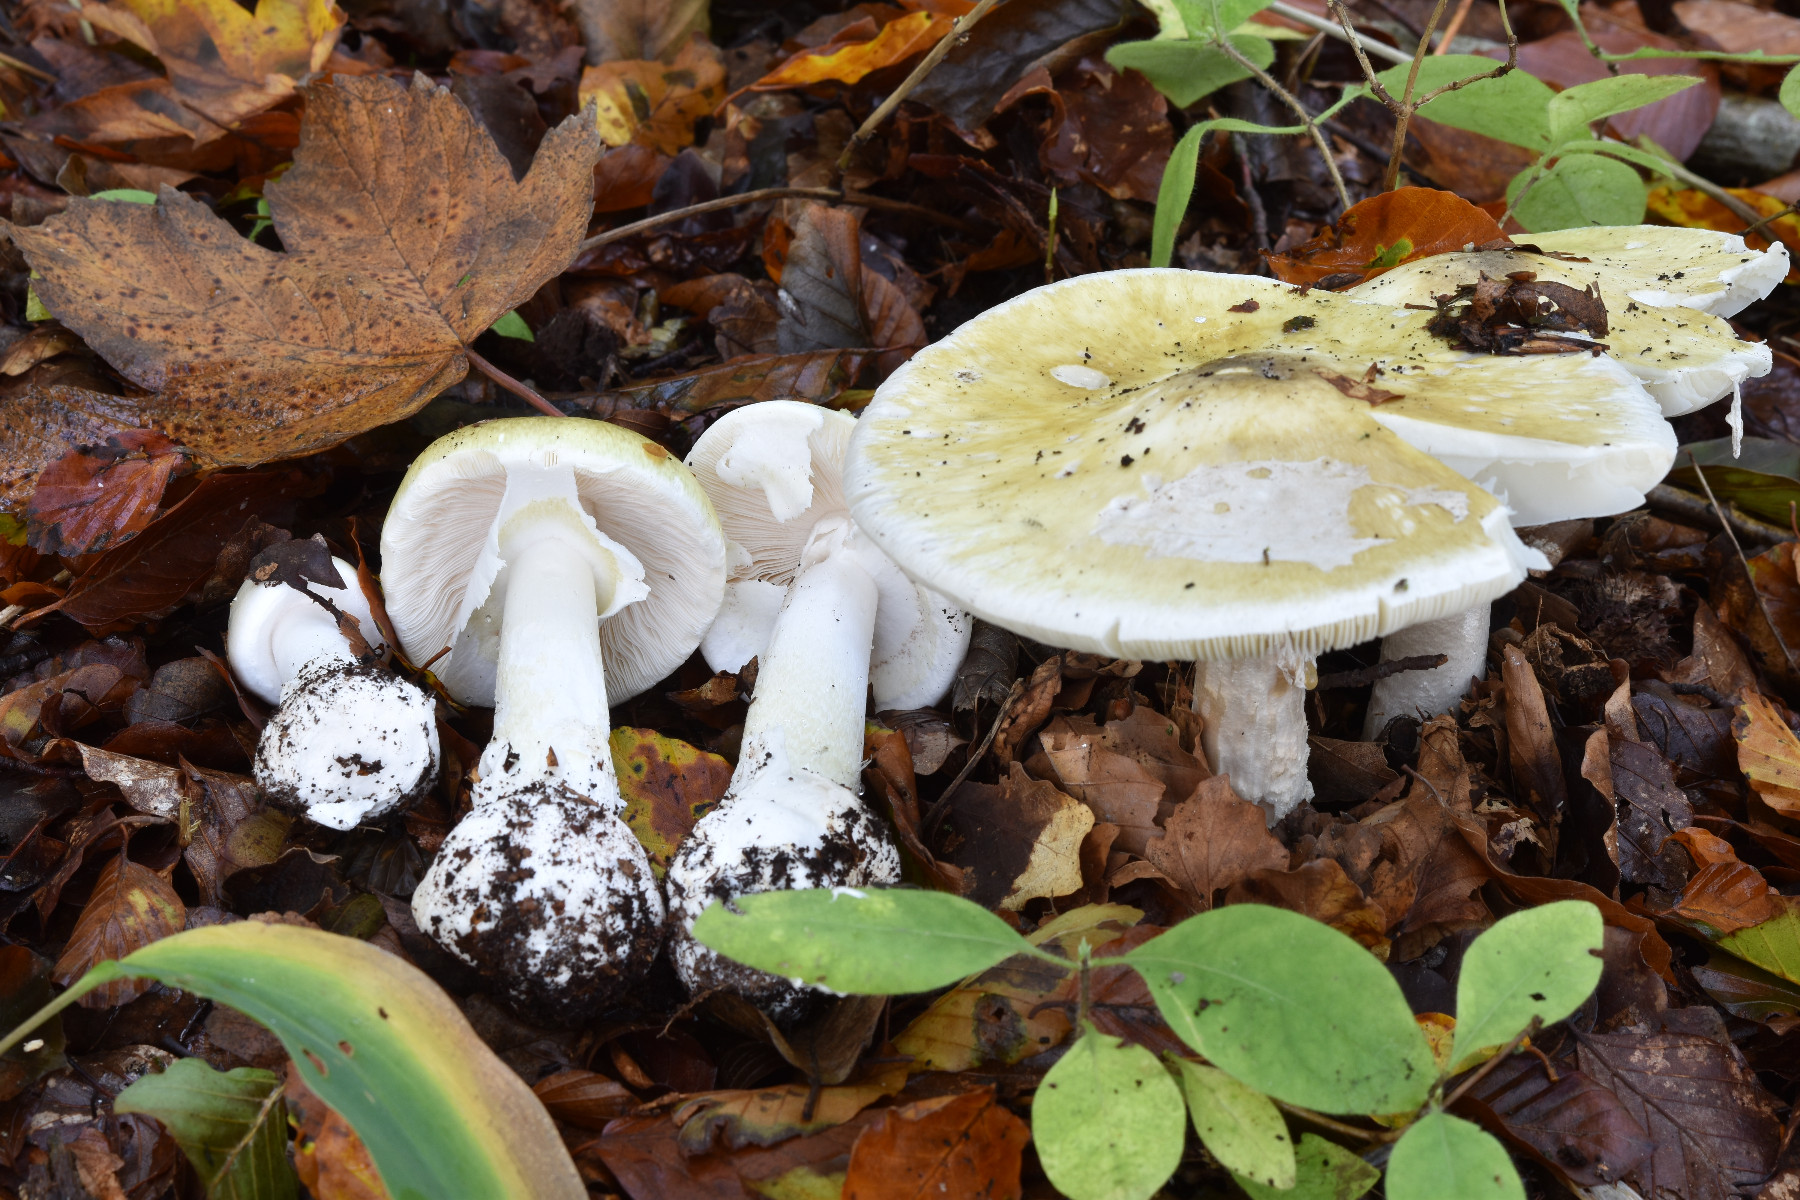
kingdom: Fungi
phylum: Basidiomycota
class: Agaricomycetes
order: Agaricales
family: Amanitaceae
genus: Amanita
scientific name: Amanita phalloides
